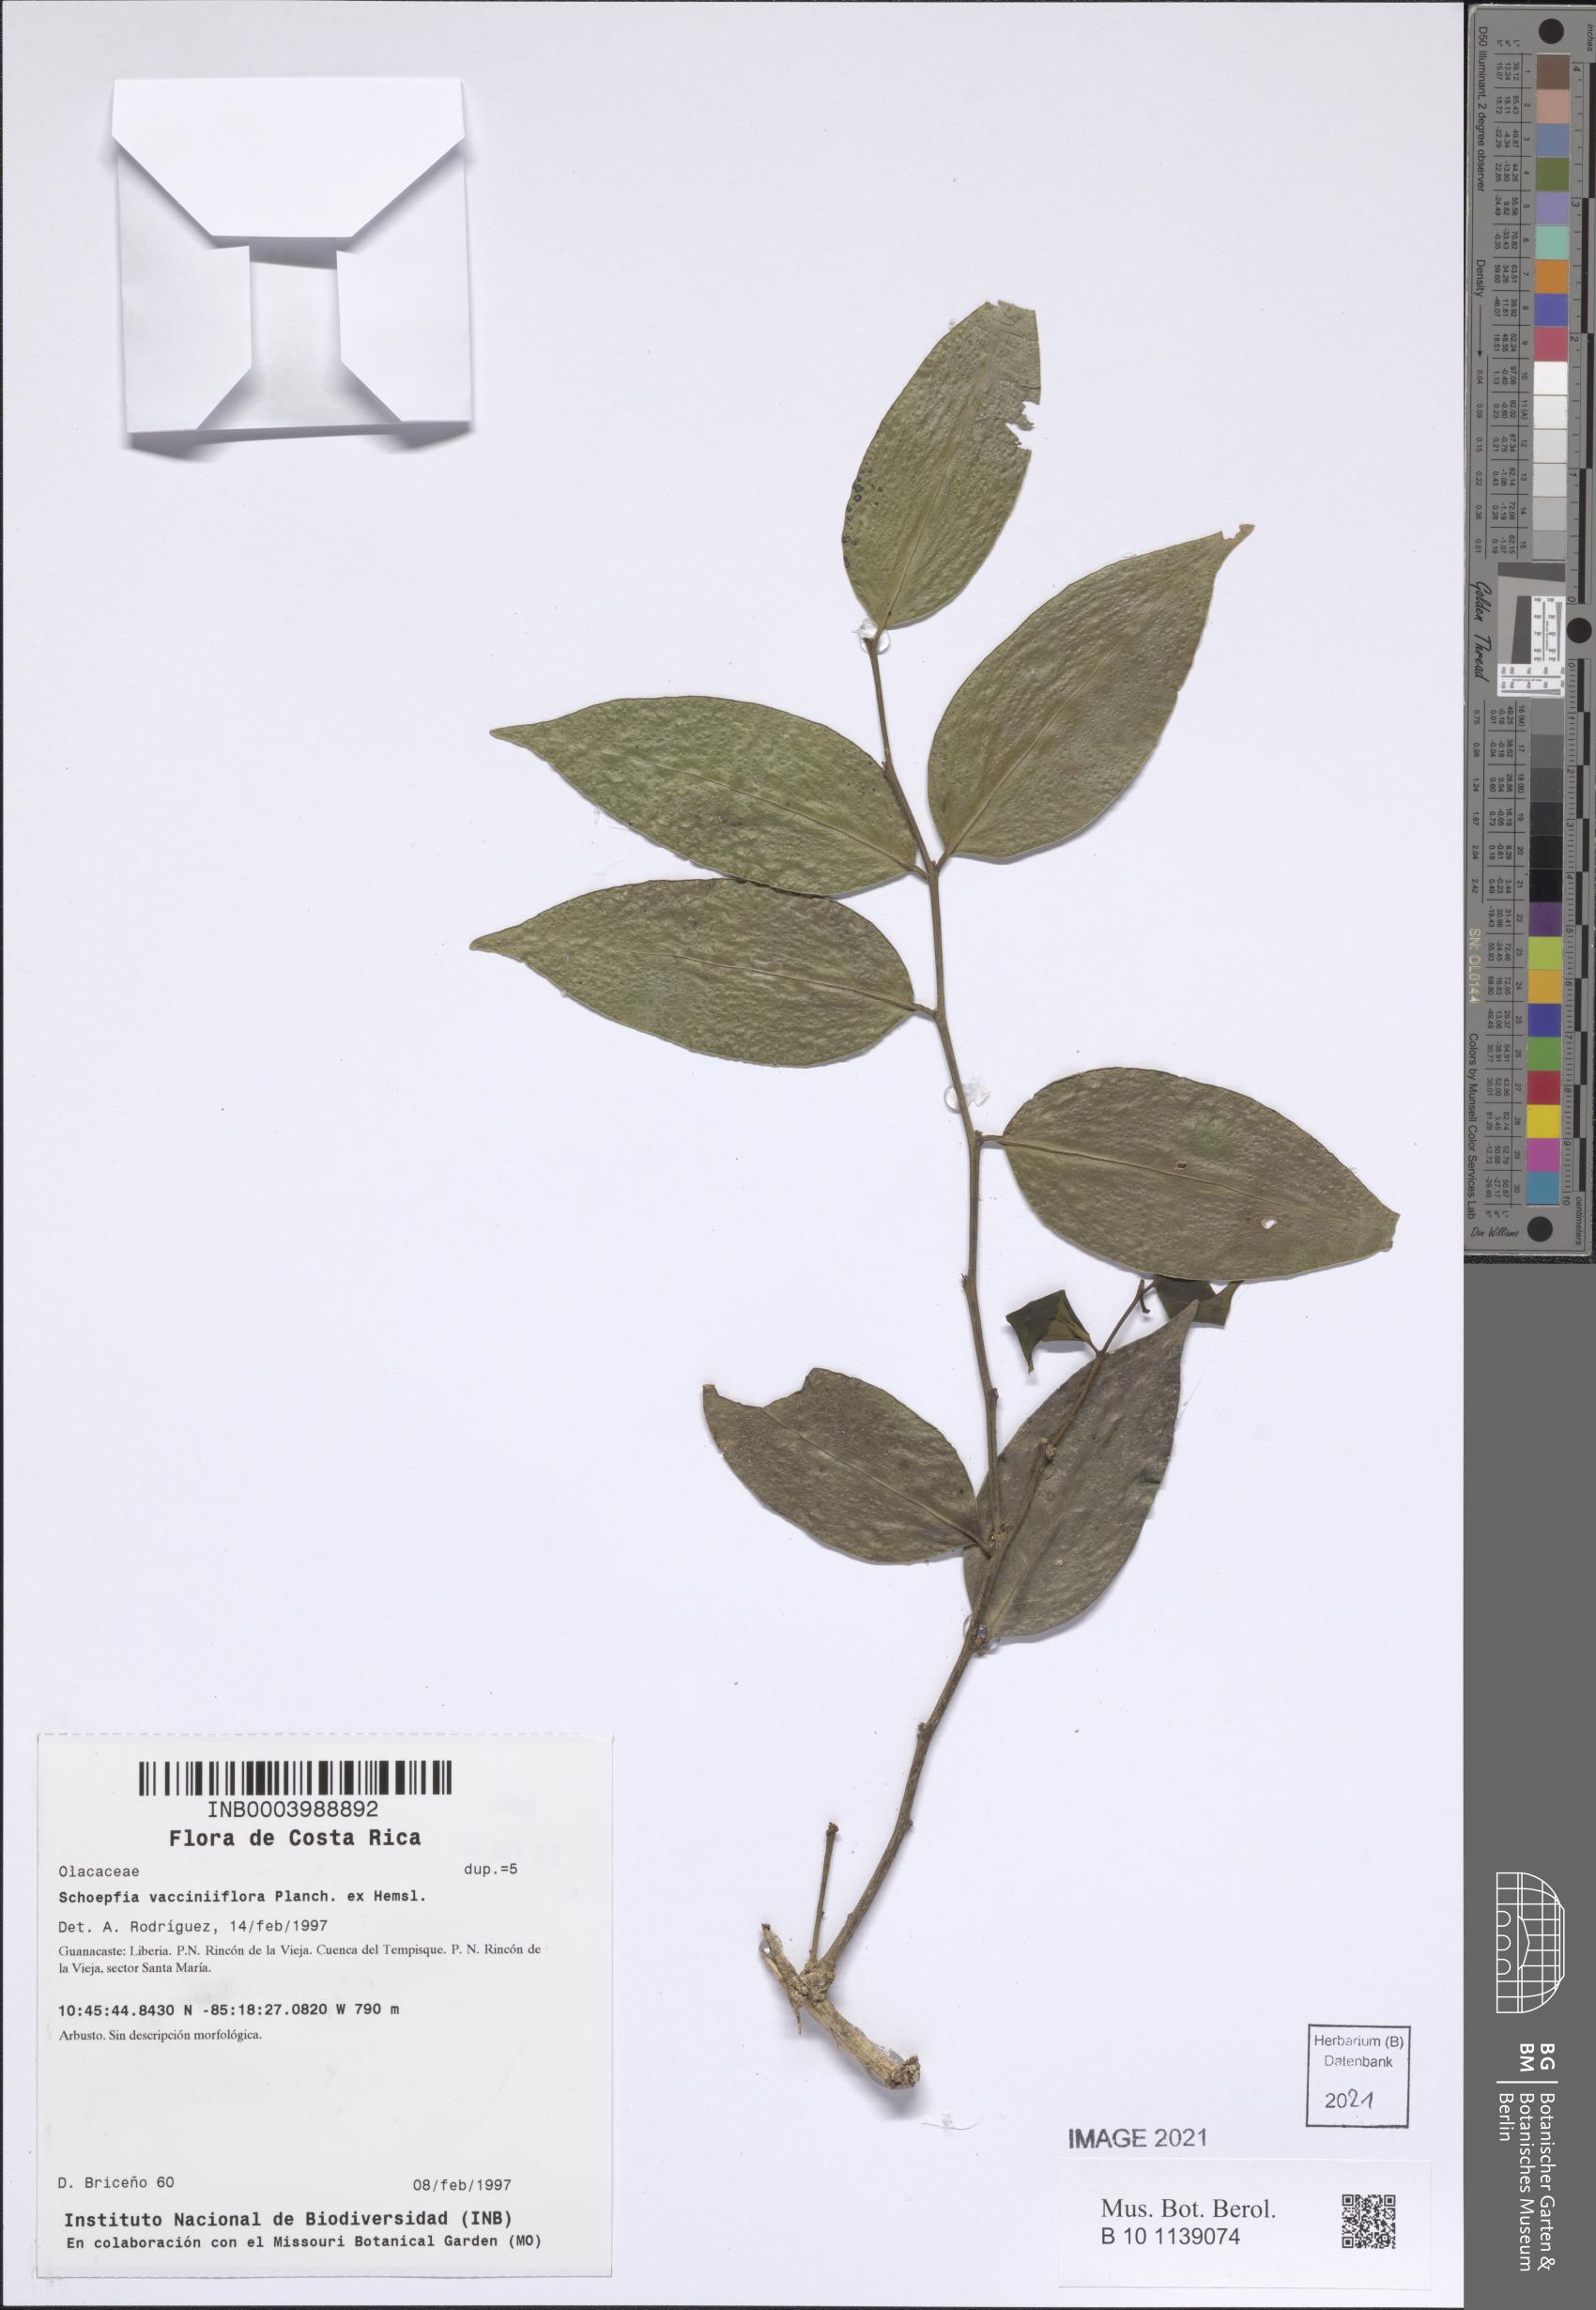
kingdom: Plantae
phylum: Tracheophyta
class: Magnoliopsida
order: Santalales
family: Schoepfiaceae
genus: Schoepfia
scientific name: Schoepfia vacciniiflora
